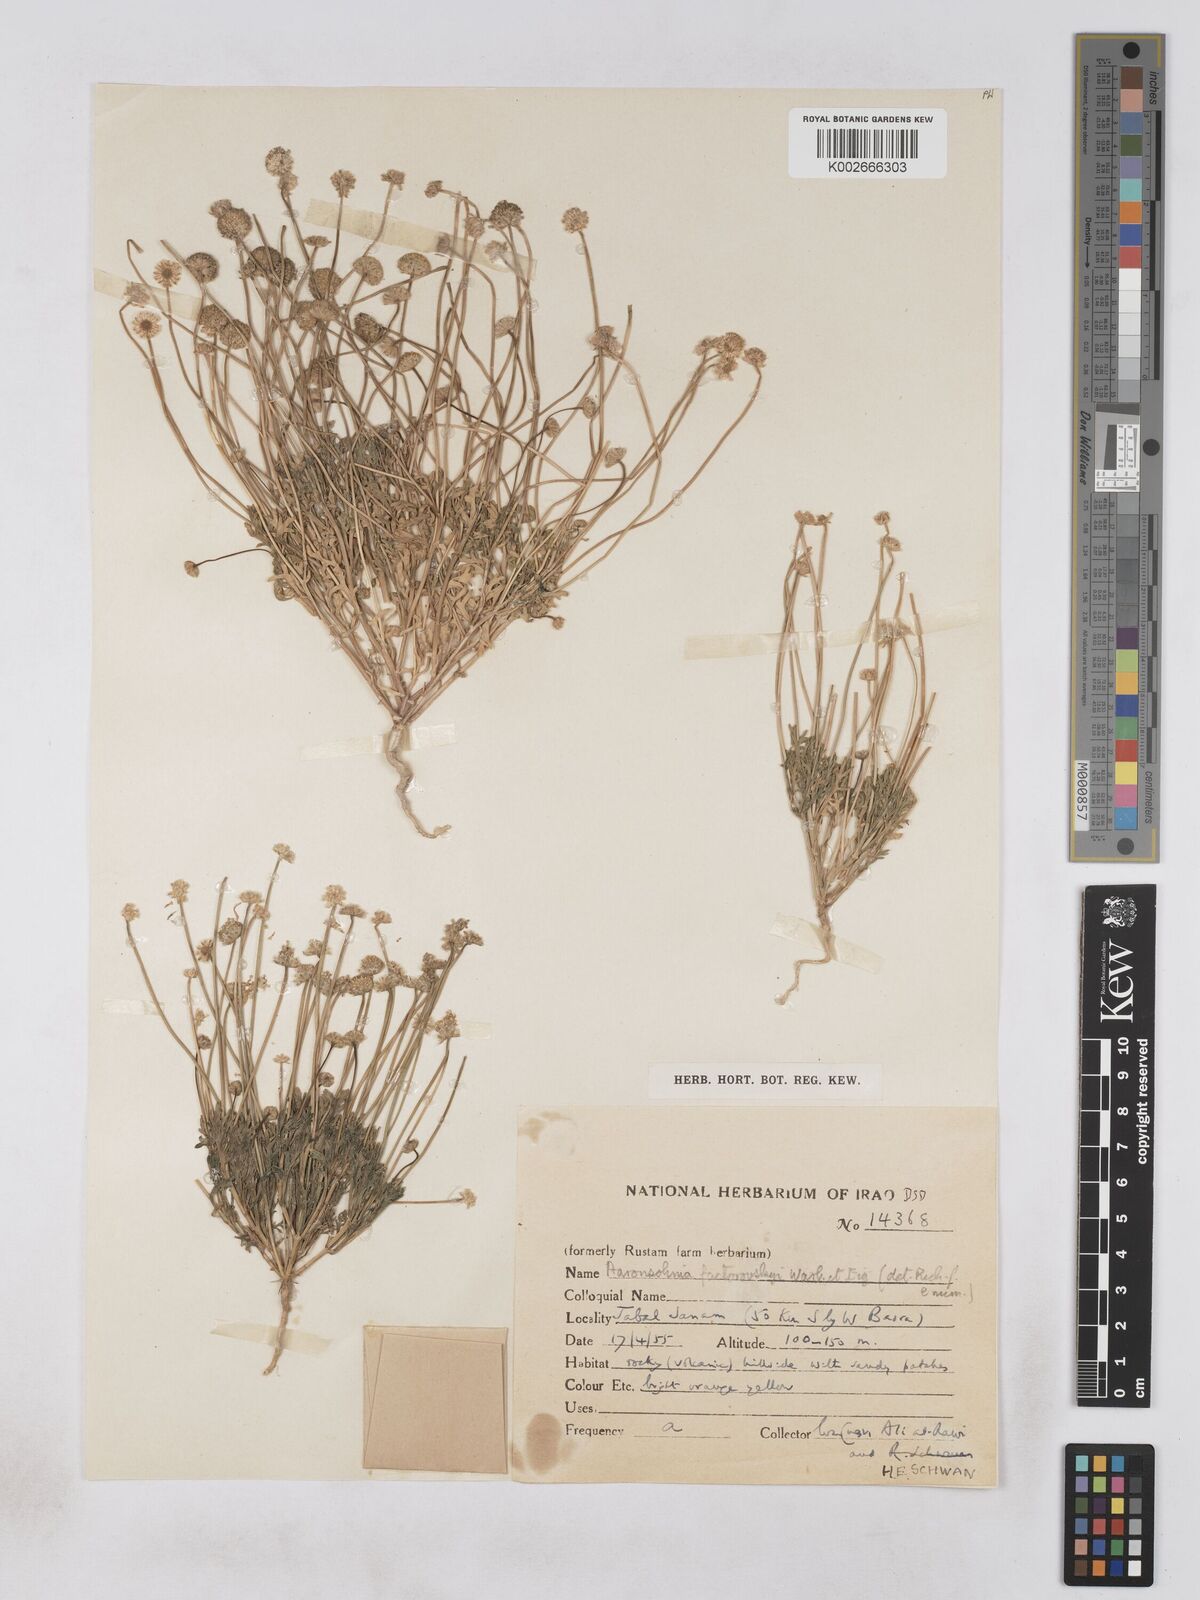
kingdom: Plantae
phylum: Tracheophyta
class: Magnoliopsida
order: Asterales
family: Asteraceae
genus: Otoglyphis
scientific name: Otoglyphis factorovskyi
